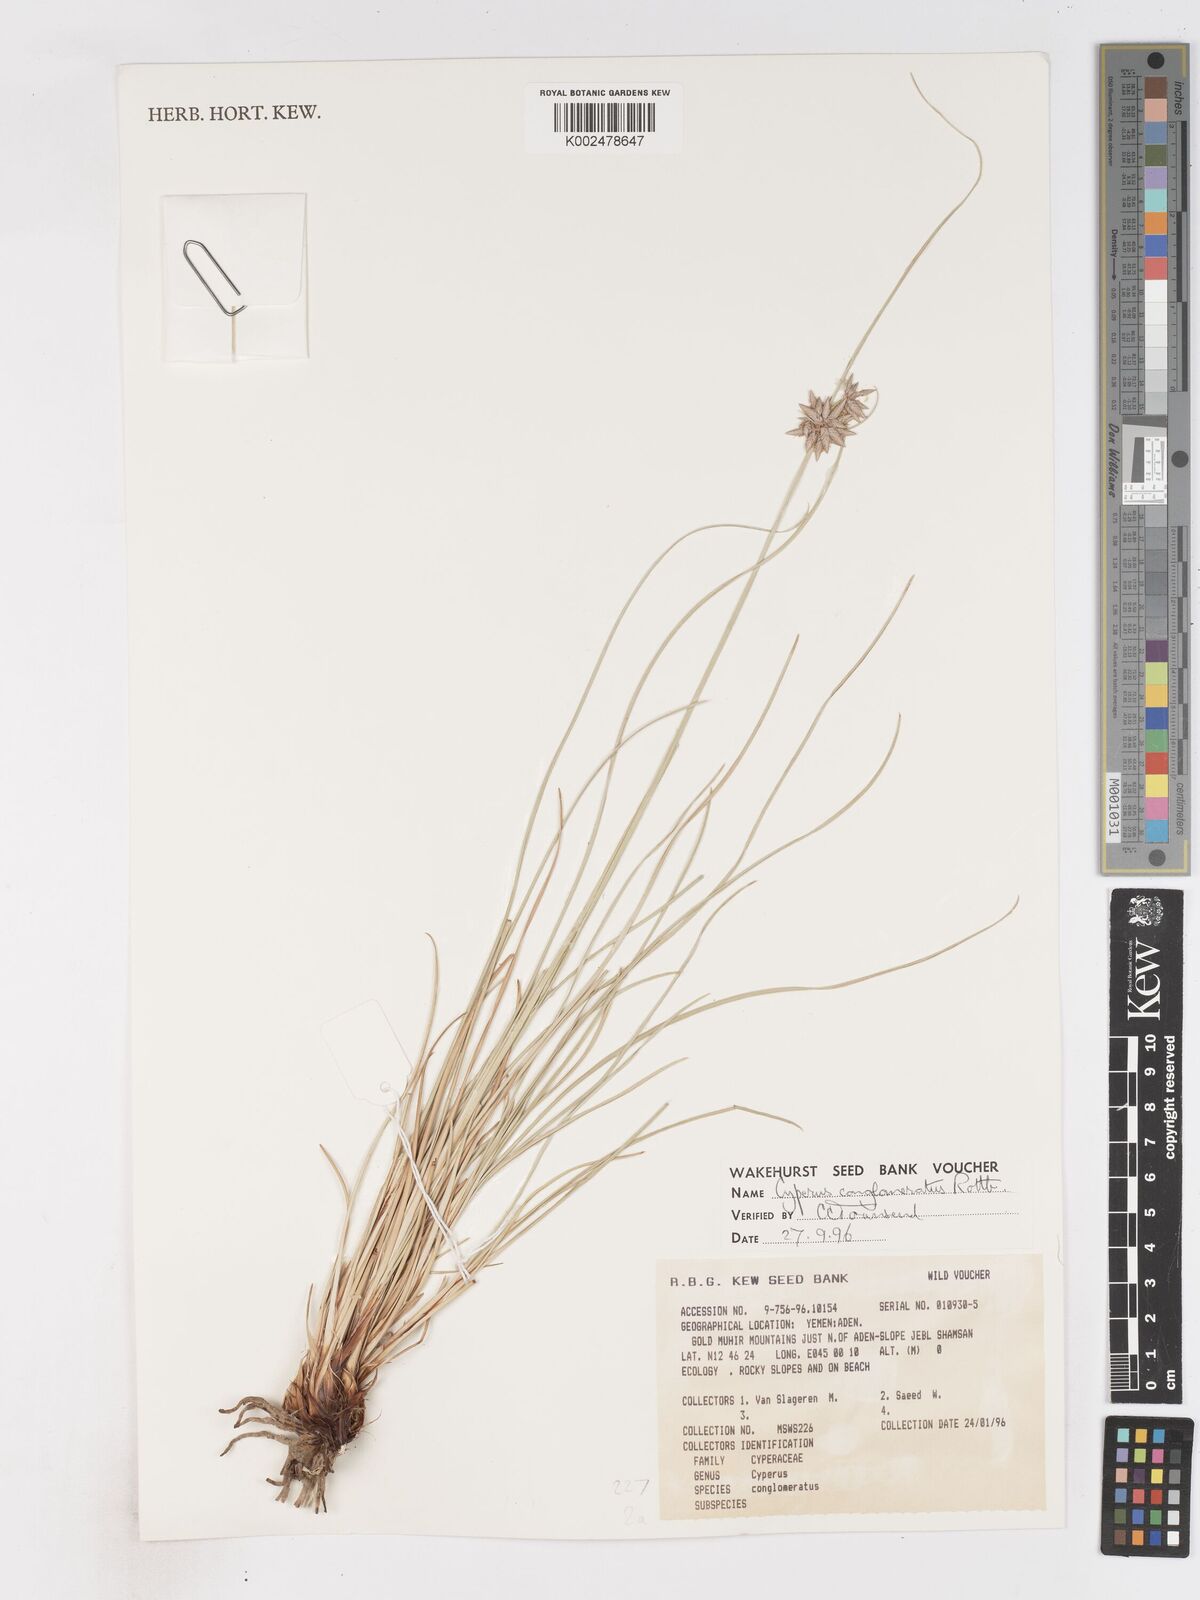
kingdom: Plantae
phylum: Tracheophyta
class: Liliopsida
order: Poales
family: Cyperaceae
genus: Cyperus
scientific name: Cyperus conglomeratus
